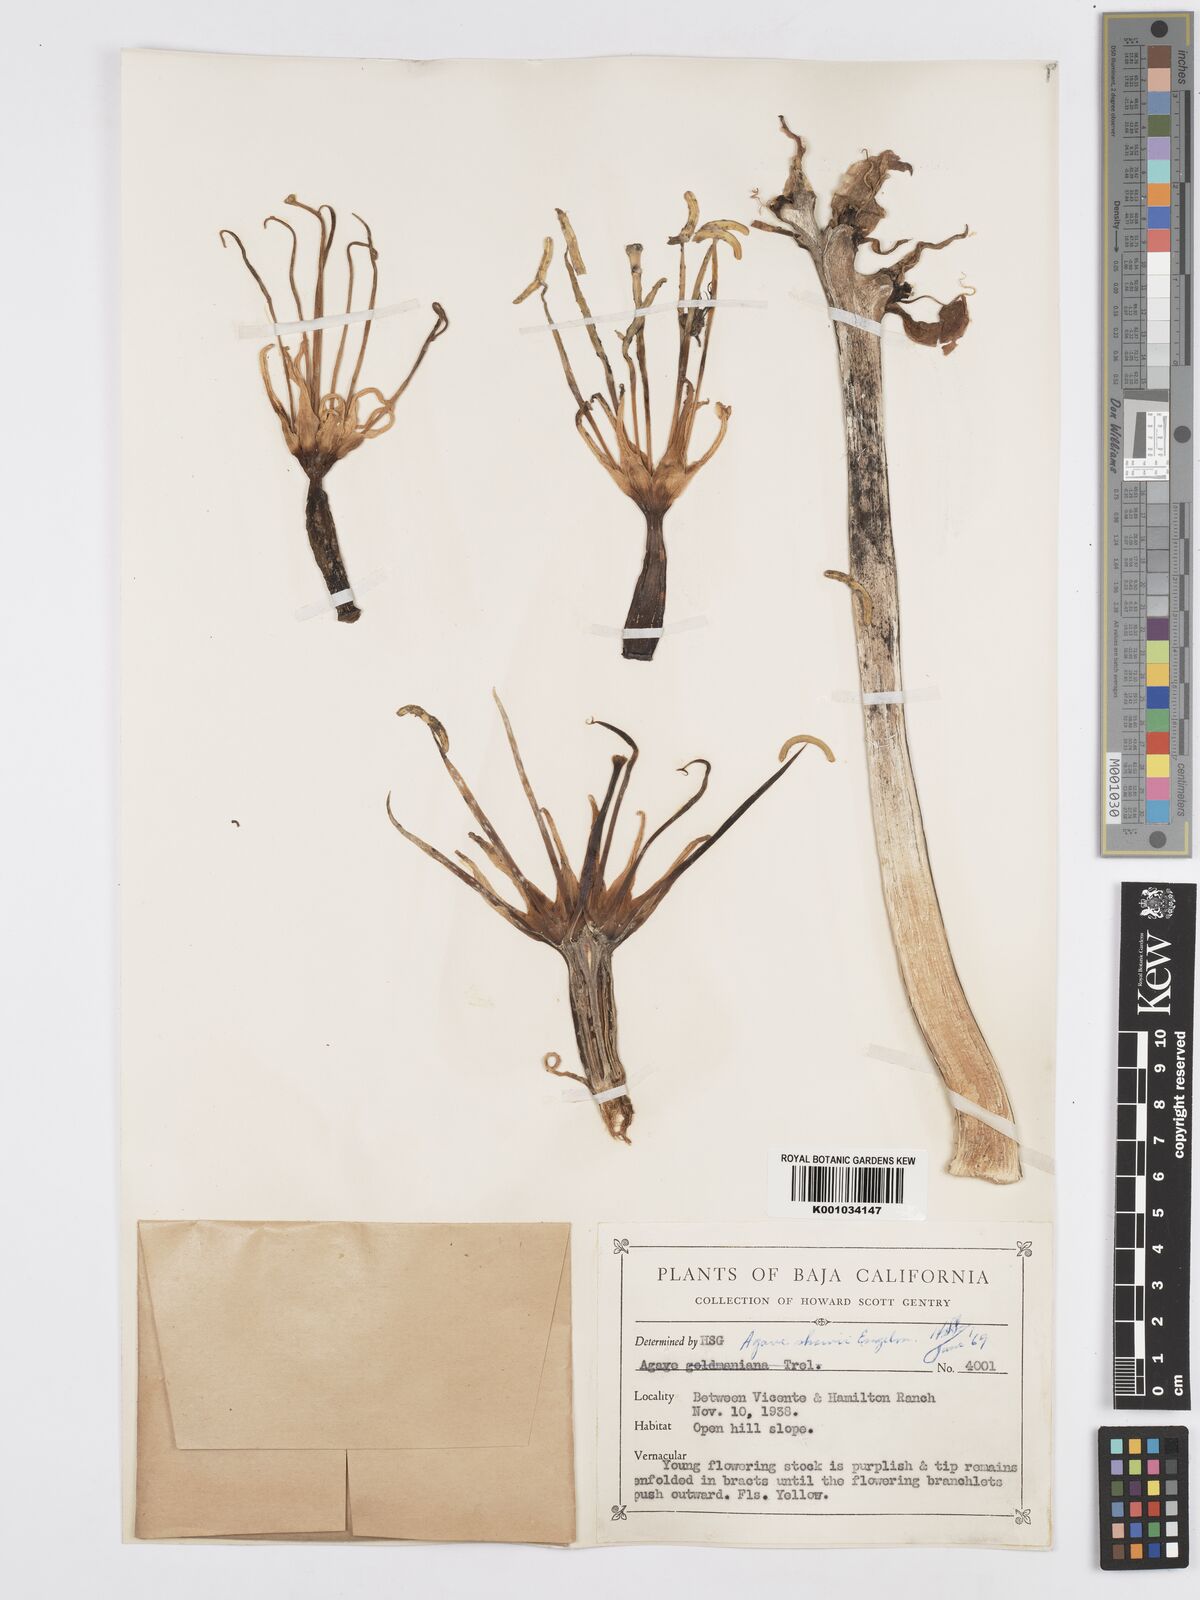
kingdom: Plantae
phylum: Tracheophyta
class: Liliopsida
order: Asparagales
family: Asparagaceae
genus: Agave
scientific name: Agave shawii
